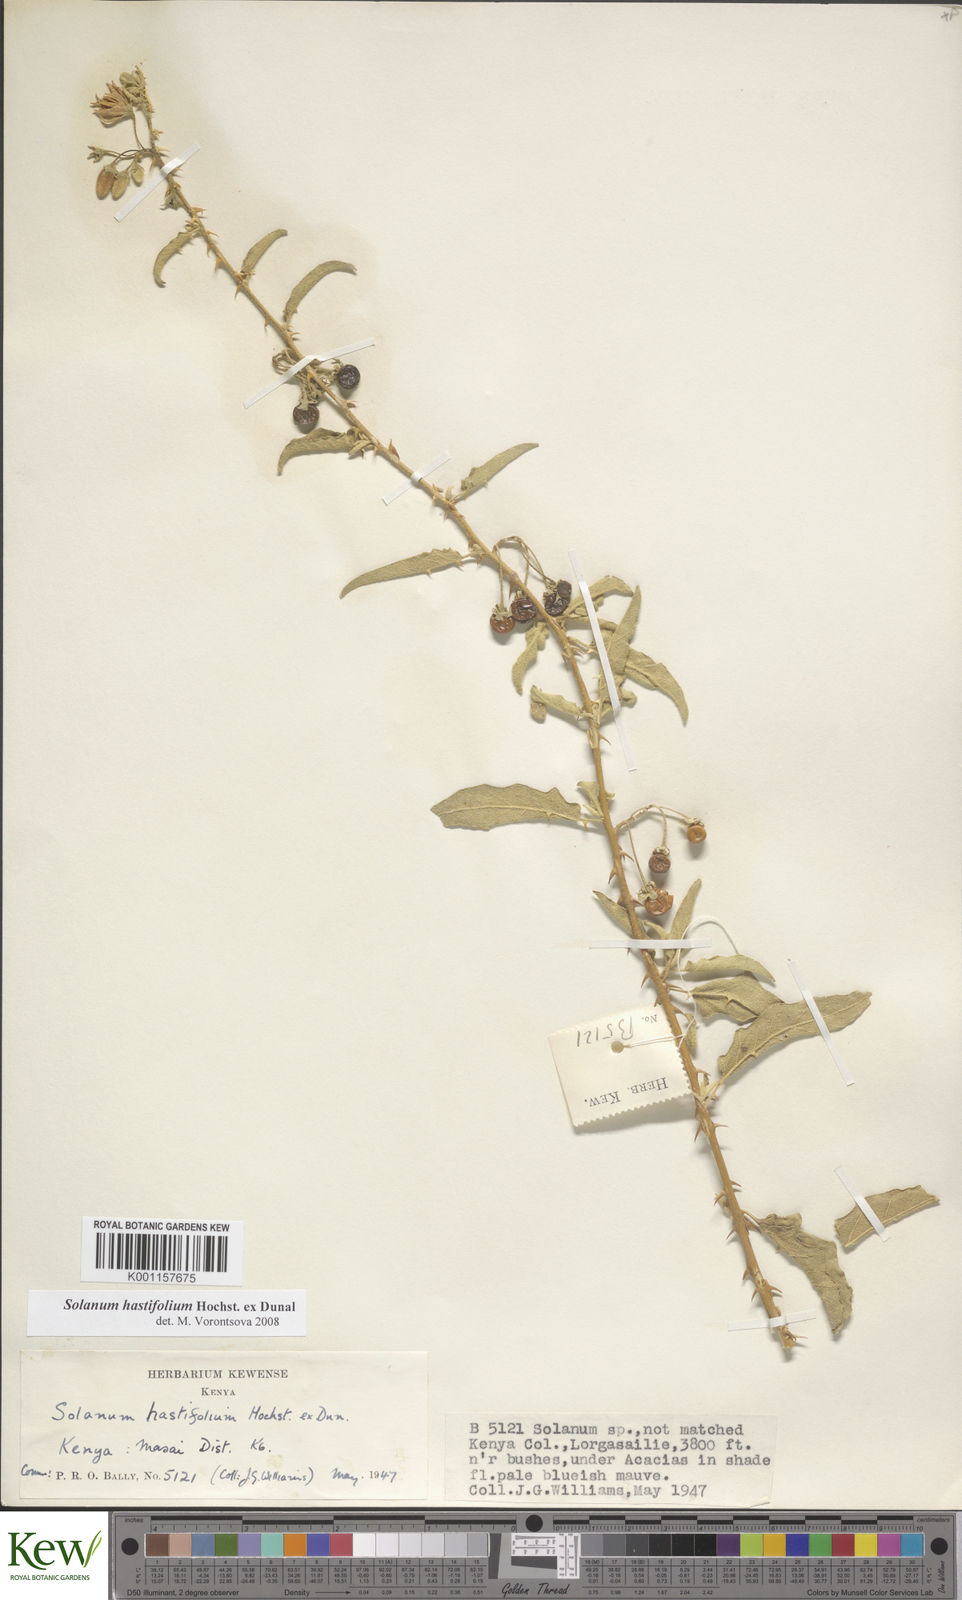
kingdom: Plantae
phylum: Tracheophyta
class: Magnoliopsida
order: Solanales
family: Solanaceae
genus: Solanum
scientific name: Solanum hastifolium
